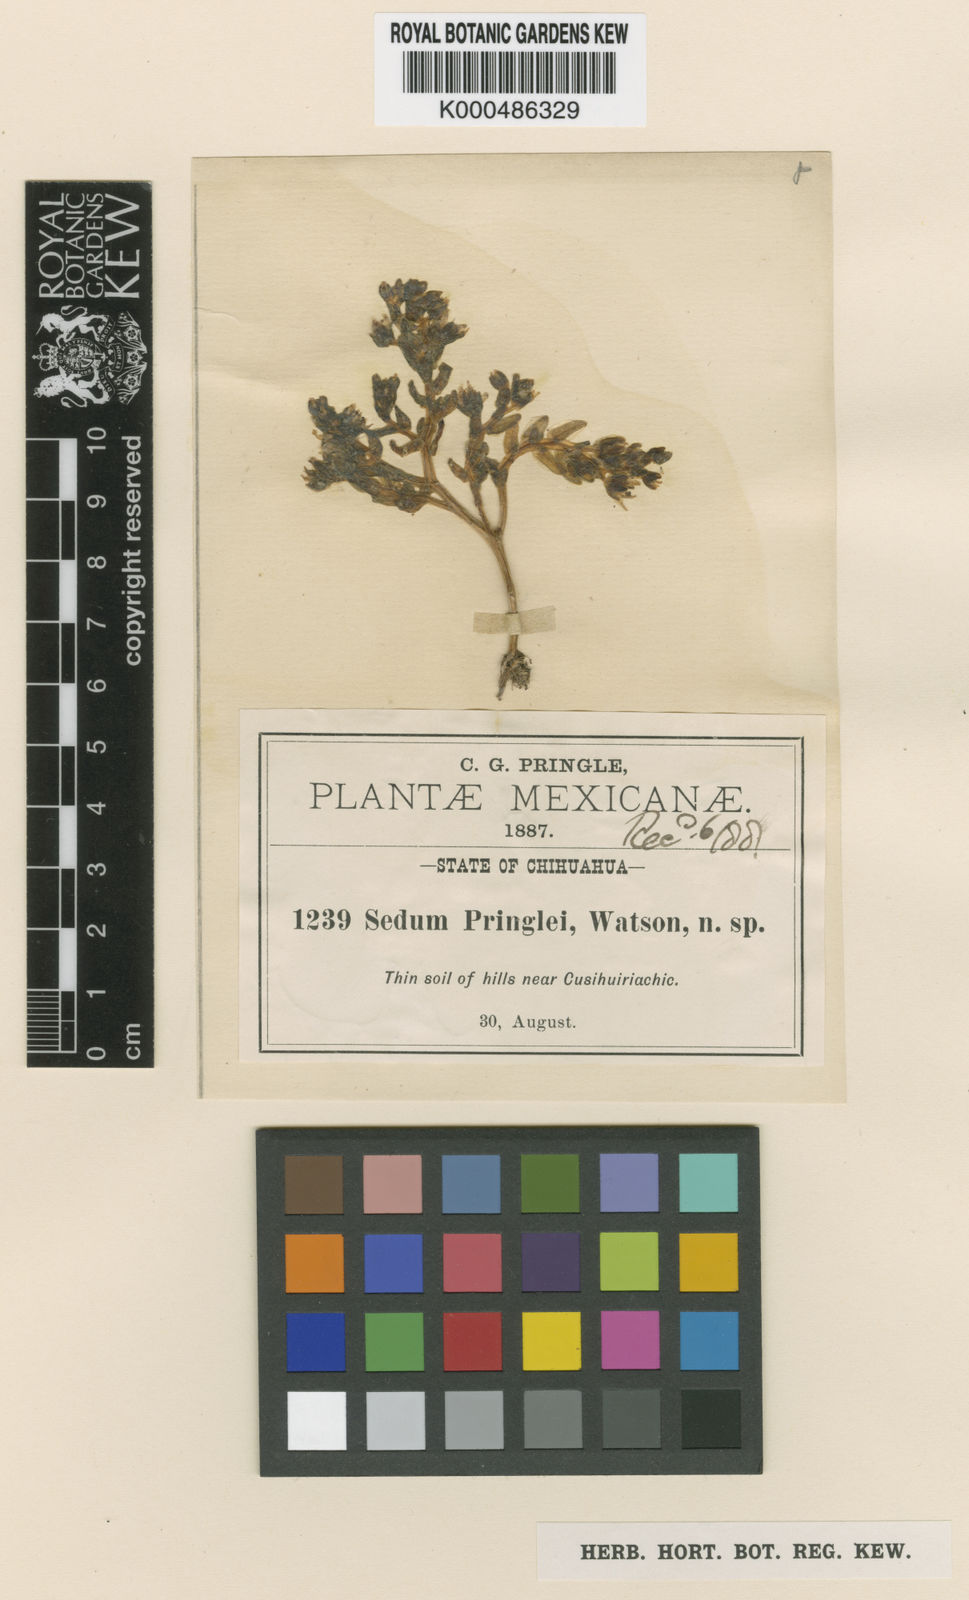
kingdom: Plantae
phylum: Tracheophyta
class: Magnoliopsida
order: Saxifragales
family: Crassulaceae
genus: Sedum
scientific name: Sedum pringlei
